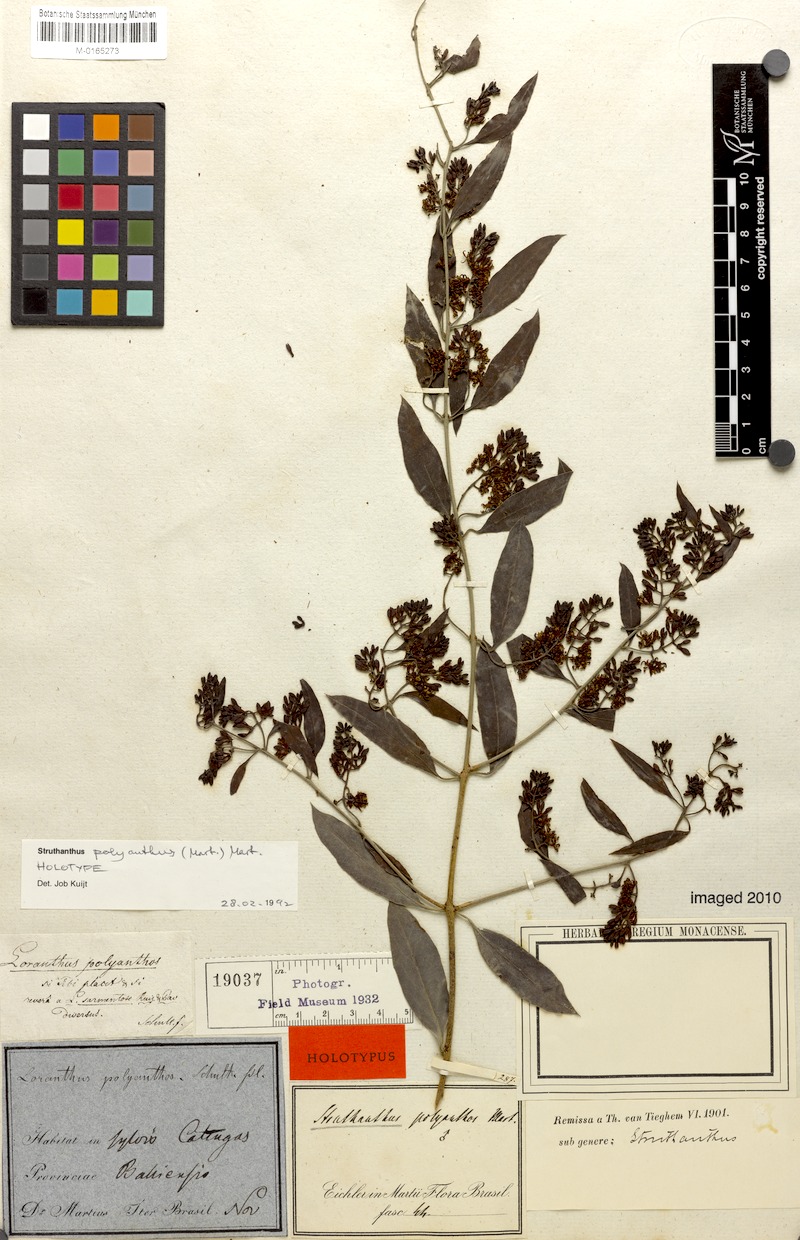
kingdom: Plantae
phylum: Tracheophyta
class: Magnoliopsida
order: Santalales
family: Loranthaceae
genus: Struthanthus
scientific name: Struthanthus polyanthus
